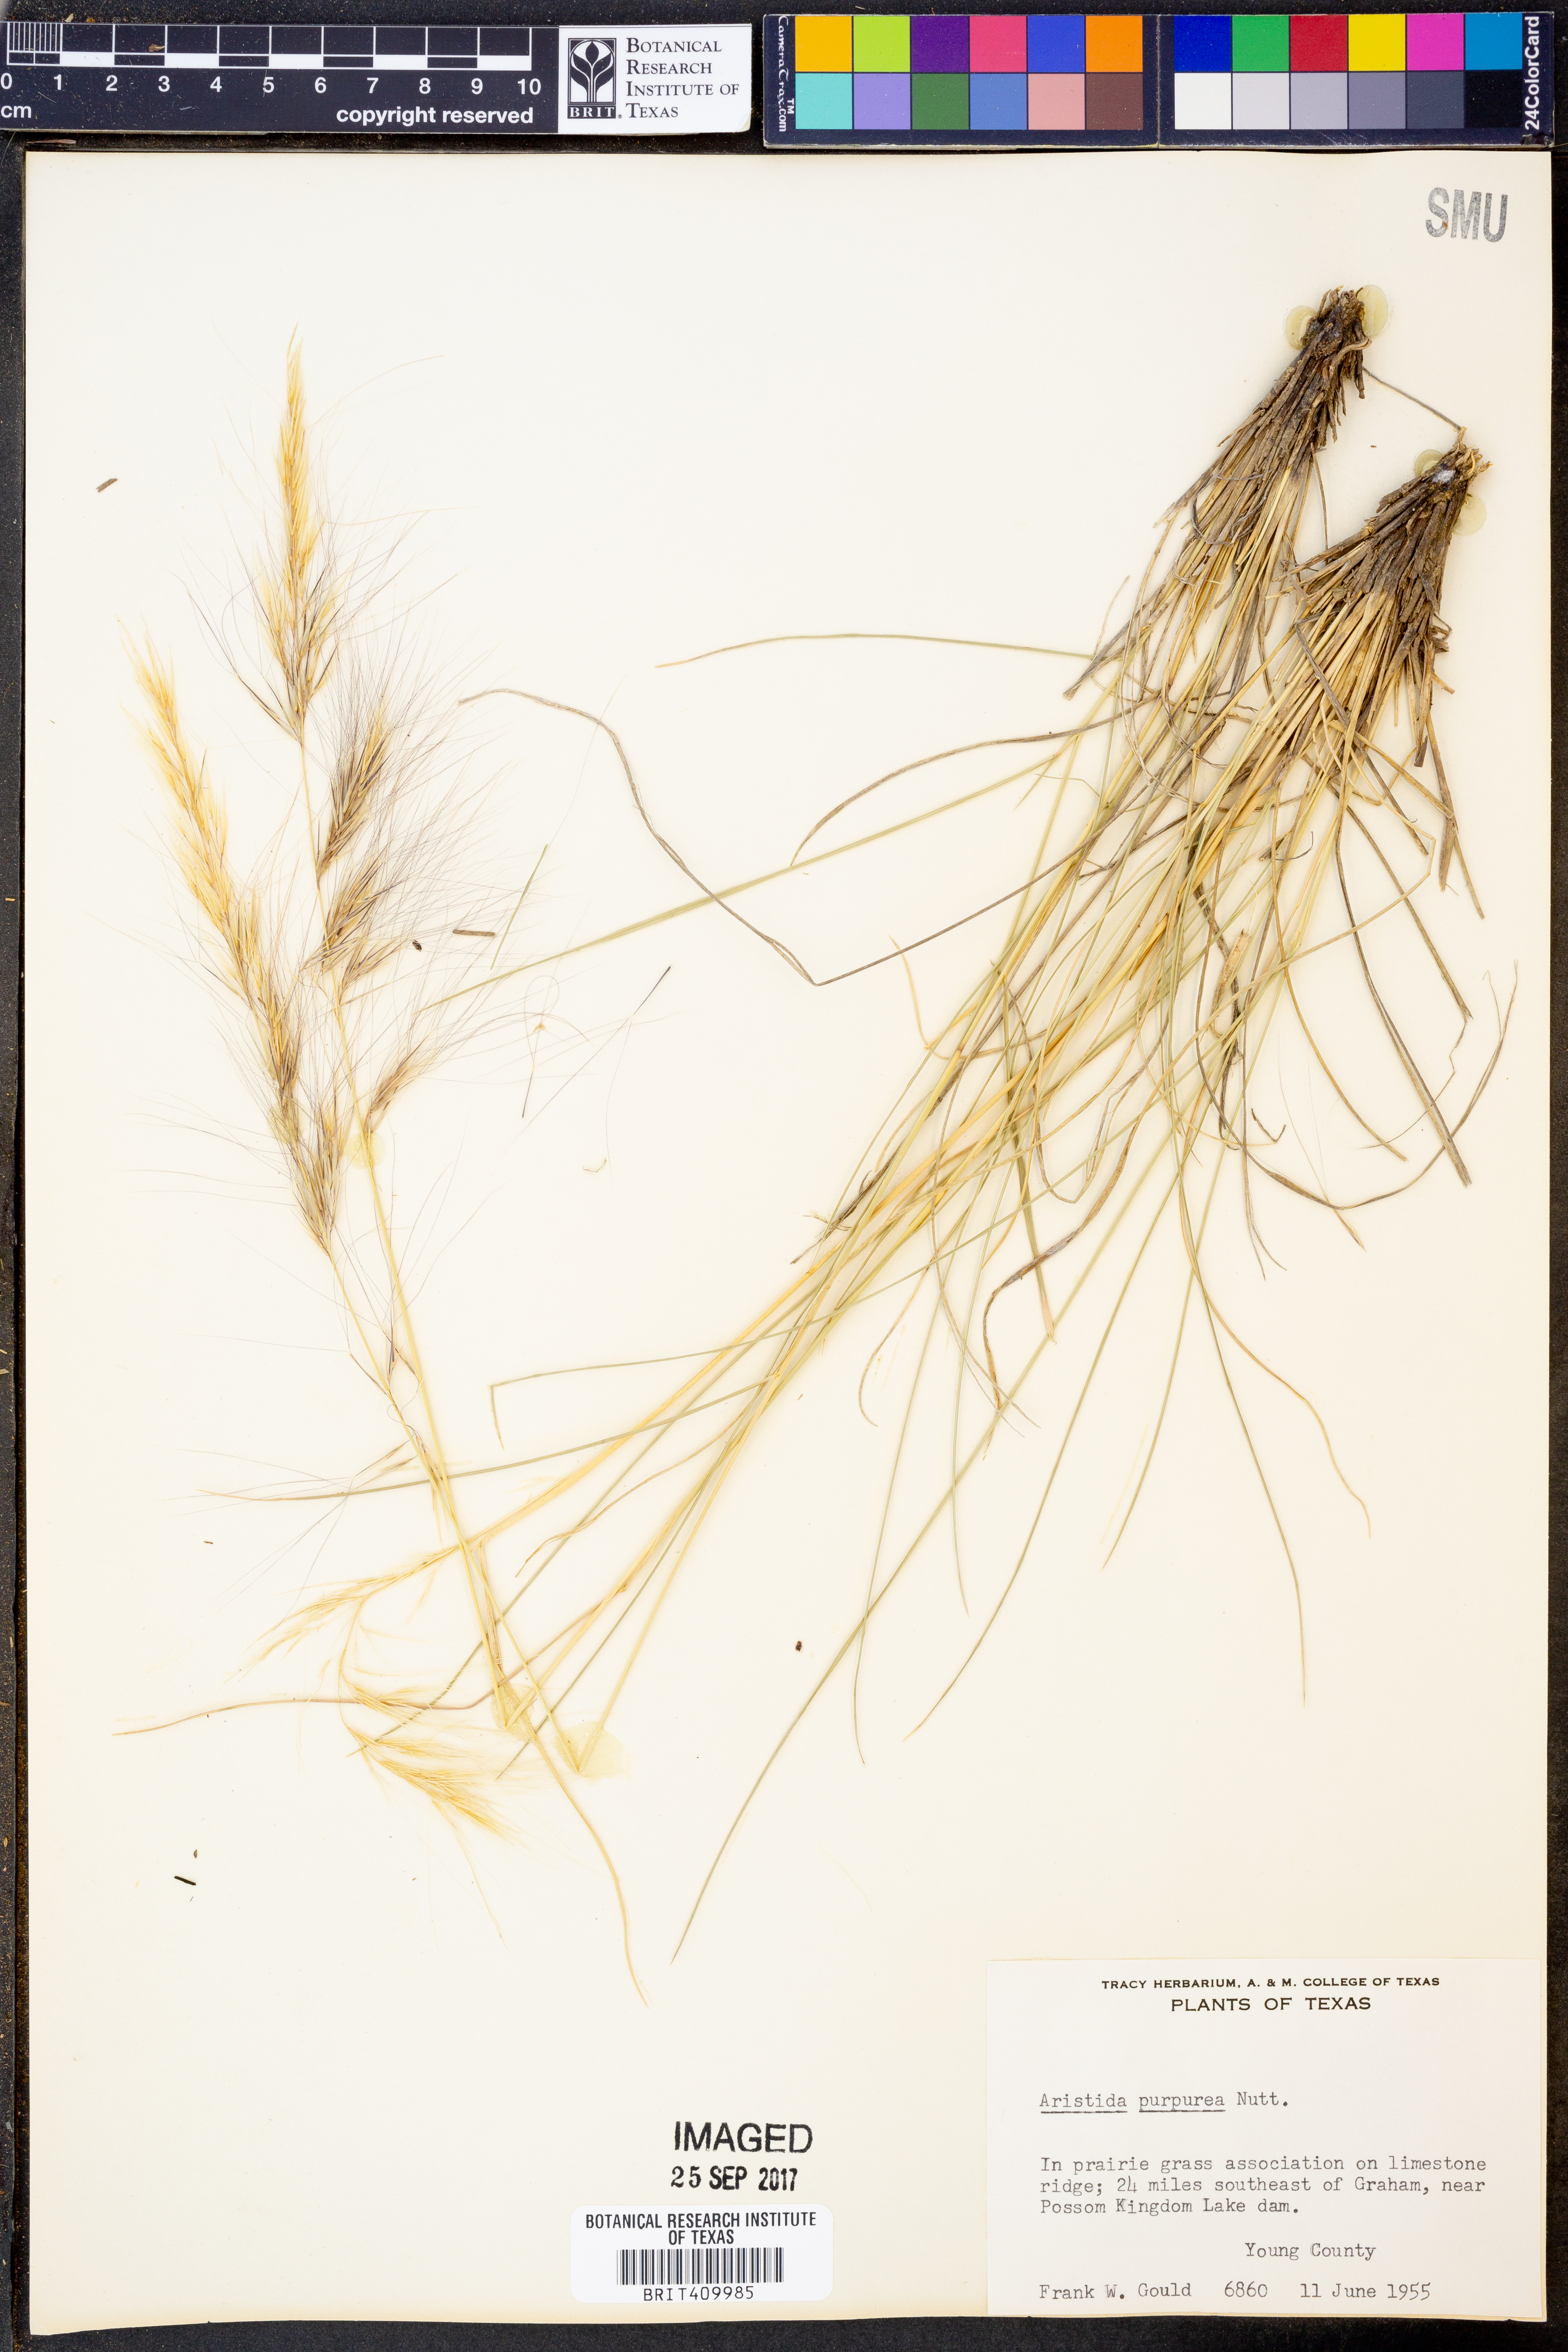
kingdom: Plantae
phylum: Tracheophyta
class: Liliopsida
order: Poales
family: Poaceae
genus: Aristida
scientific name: Aristida purpurea
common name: Purple threeawn
